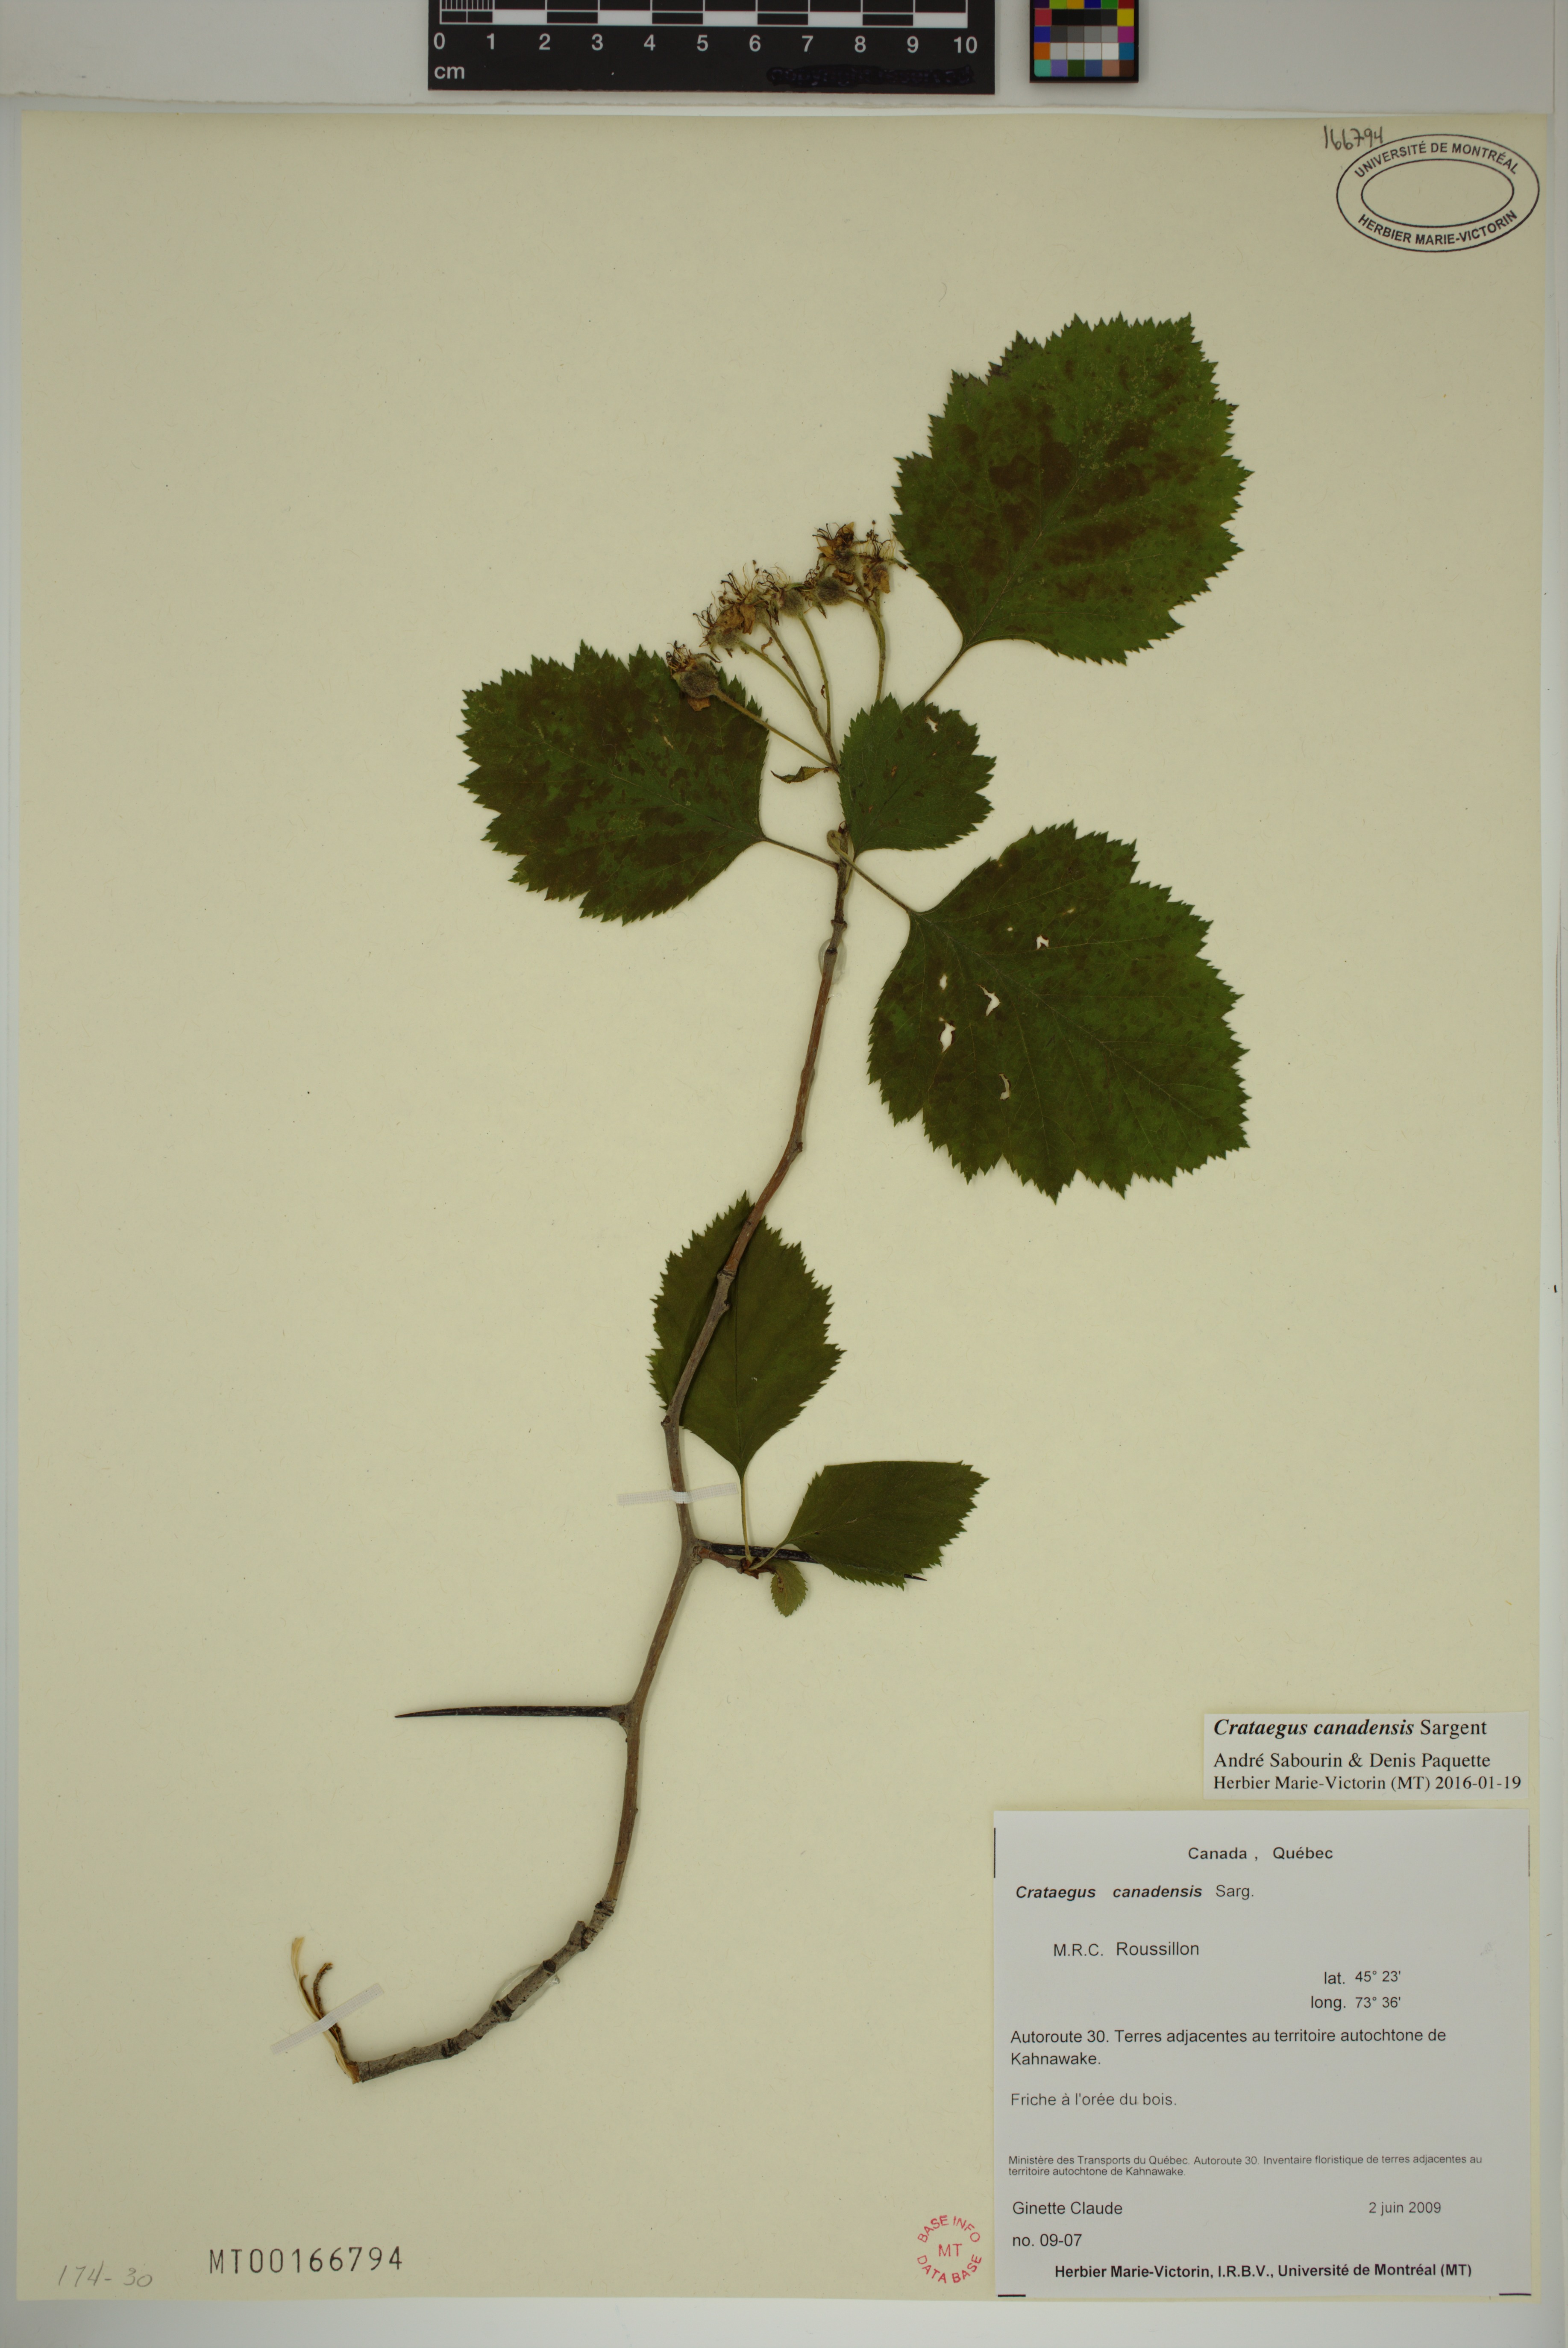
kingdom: Plantae
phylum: Tracheophyta
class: Magnoliopsida
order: Rosales
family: Rosaceae
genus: Crataegus
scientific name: Crataegus submollis
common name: Hairy cockspurthorn
